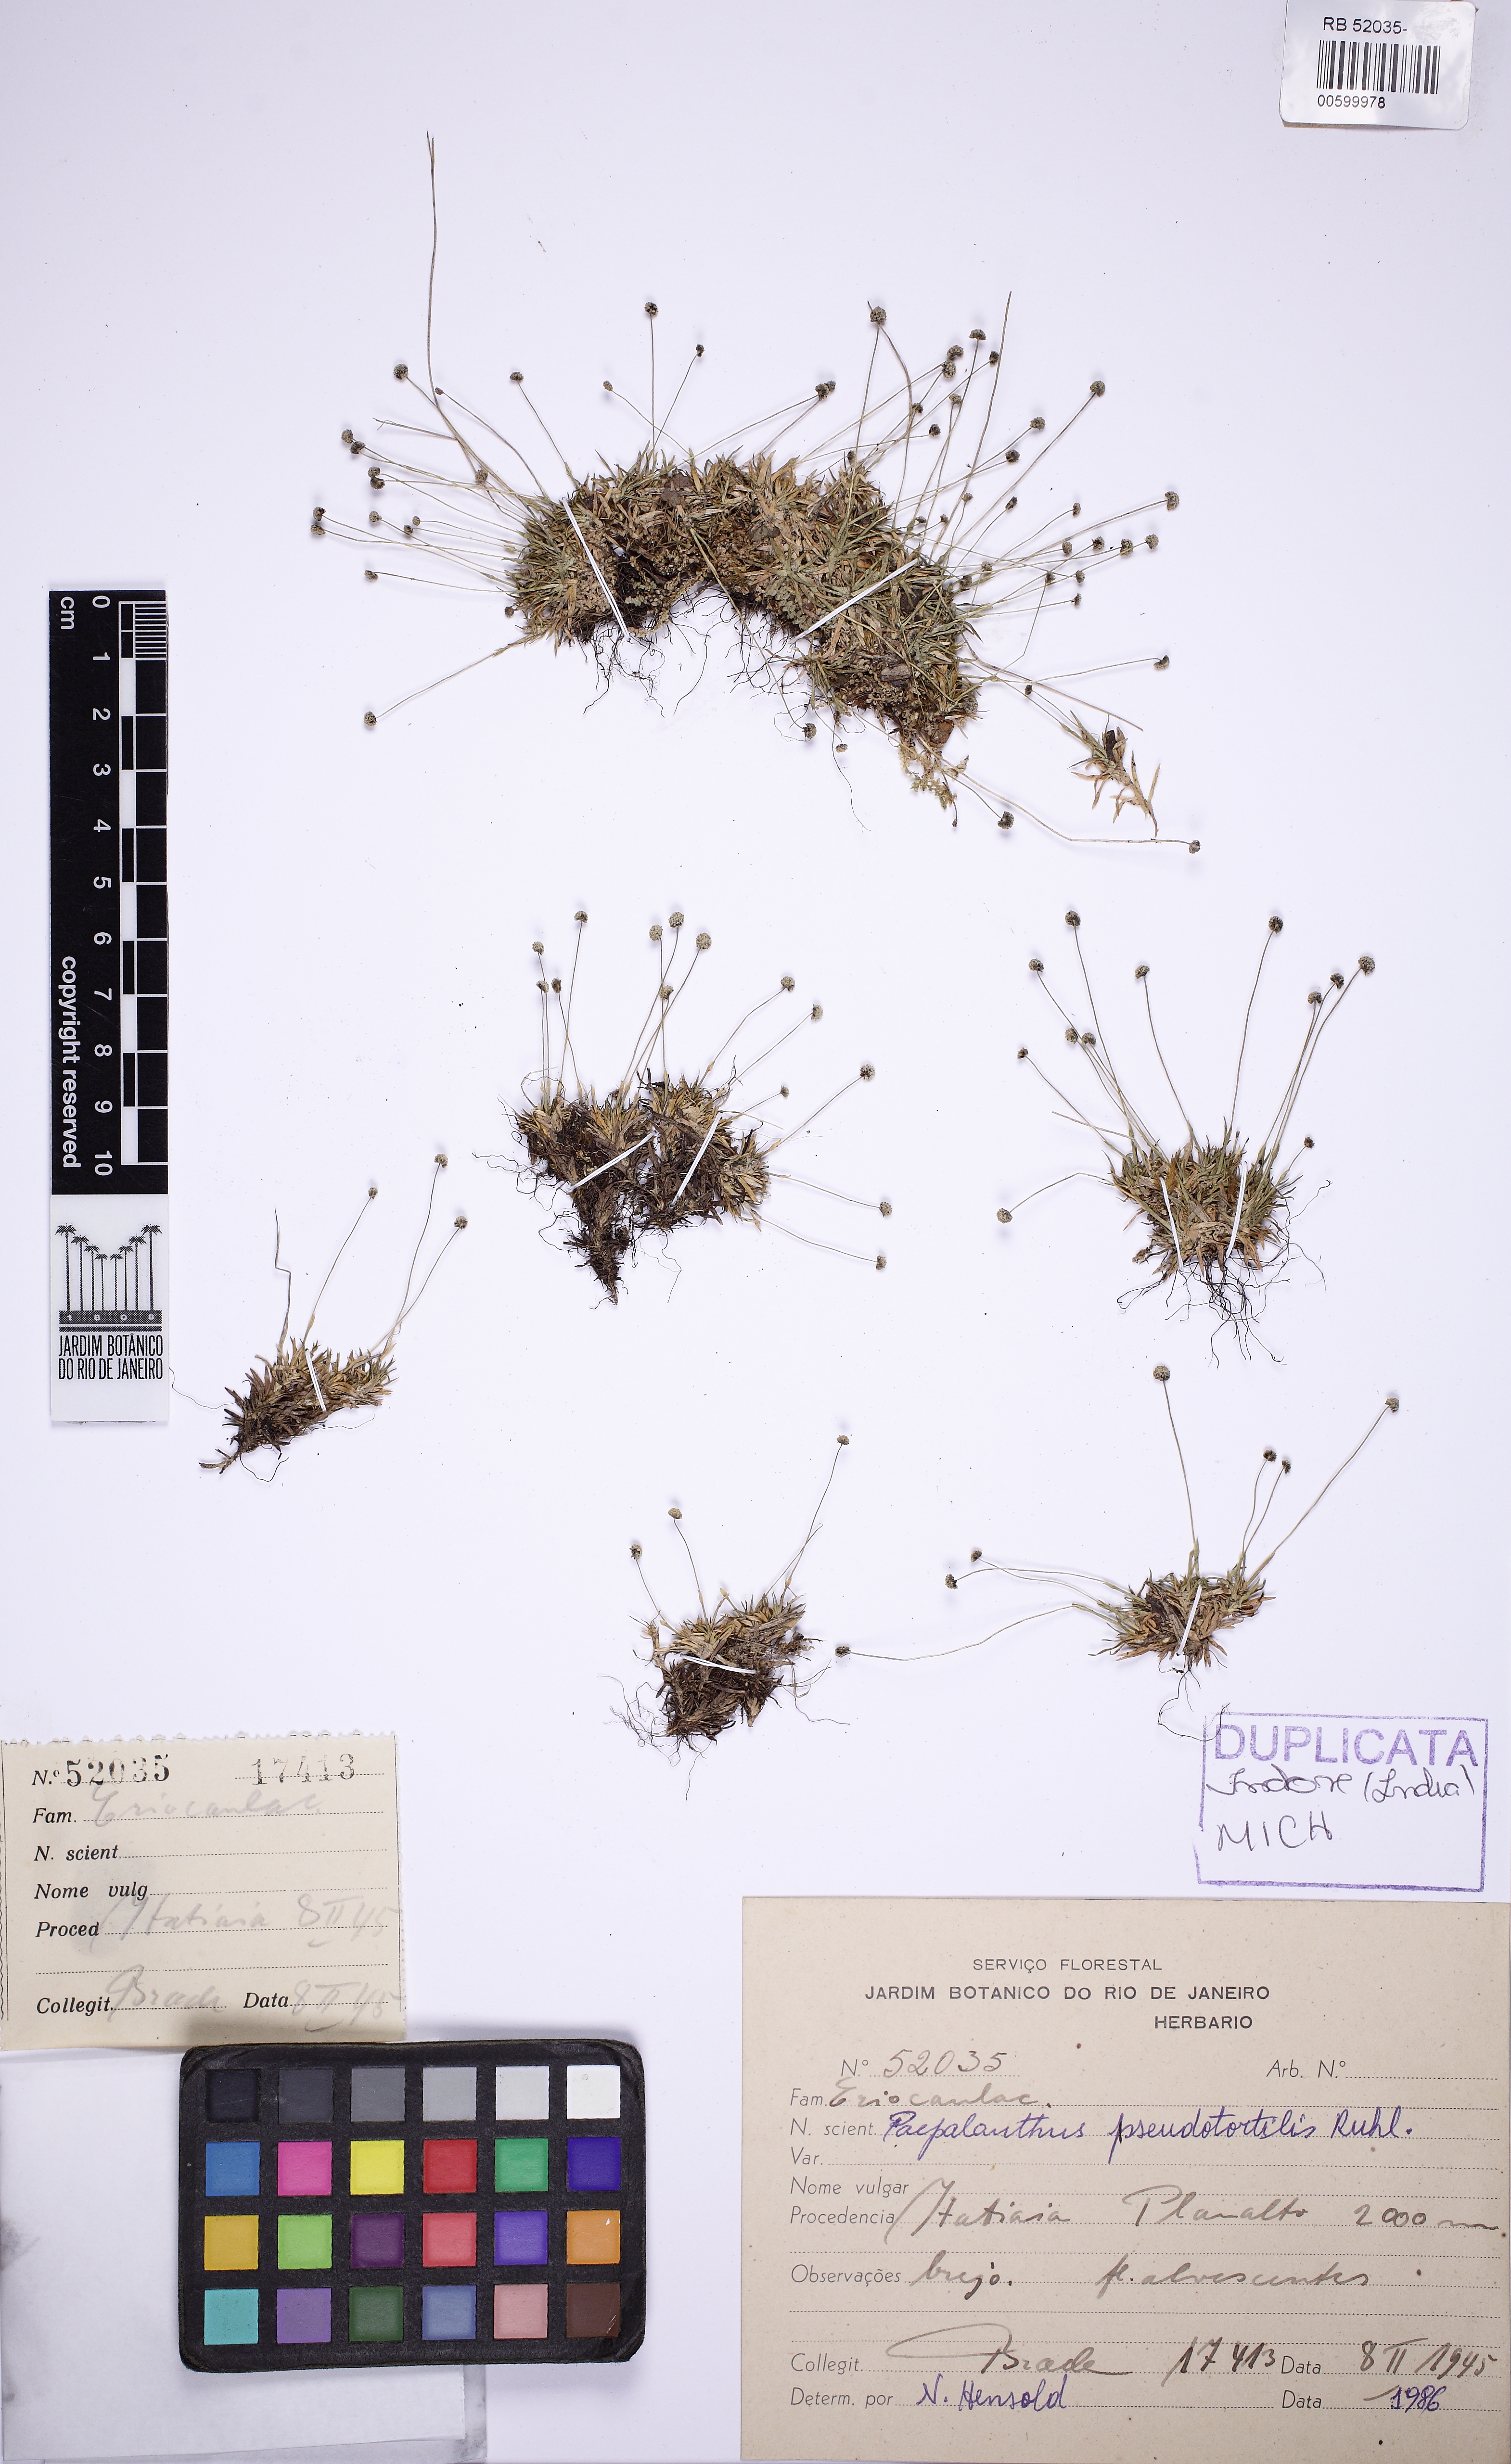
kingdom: Plantae
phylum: Tracheophyta
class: Liliopsida
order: Poales
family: Eriocaulaceae
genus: Paepalanthus
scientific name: Paepalanthus pseudotortilis
